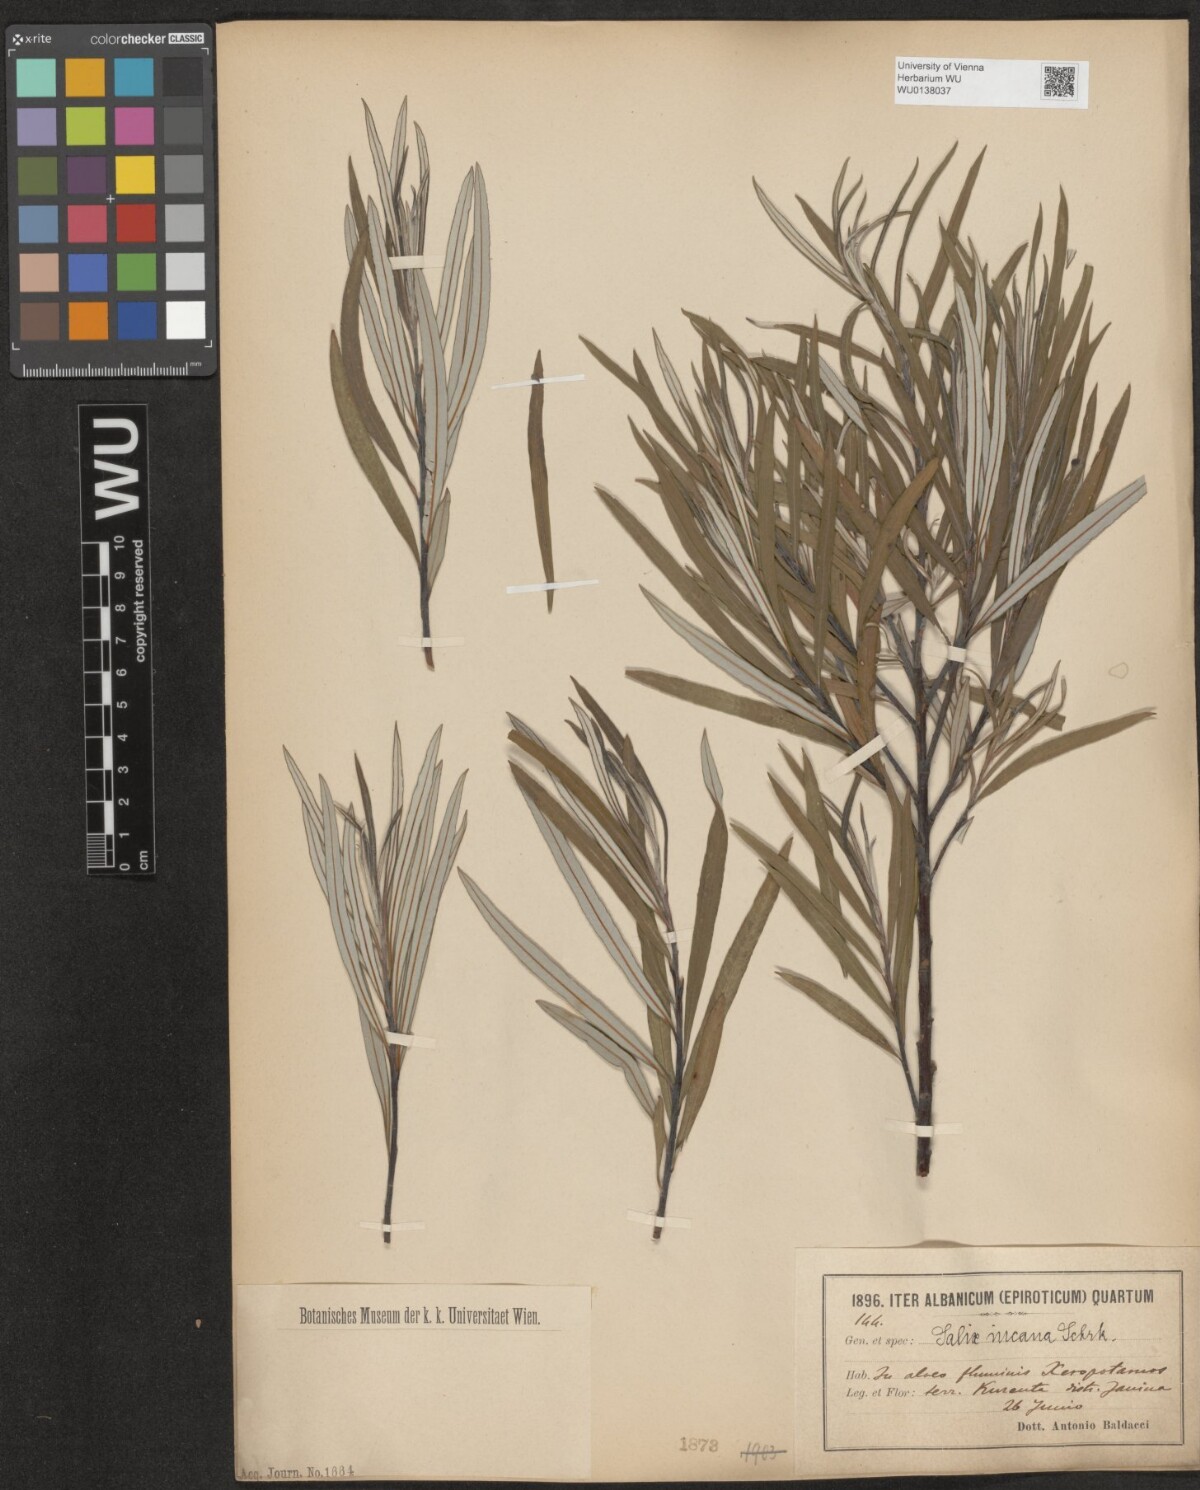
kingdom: Plantae
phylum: Tracheophyta
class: Magnoliopsida
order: Malpighiales
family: Salicaceae
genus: Salix
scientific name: Salix eleagnos
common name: Elaeagnus willow
